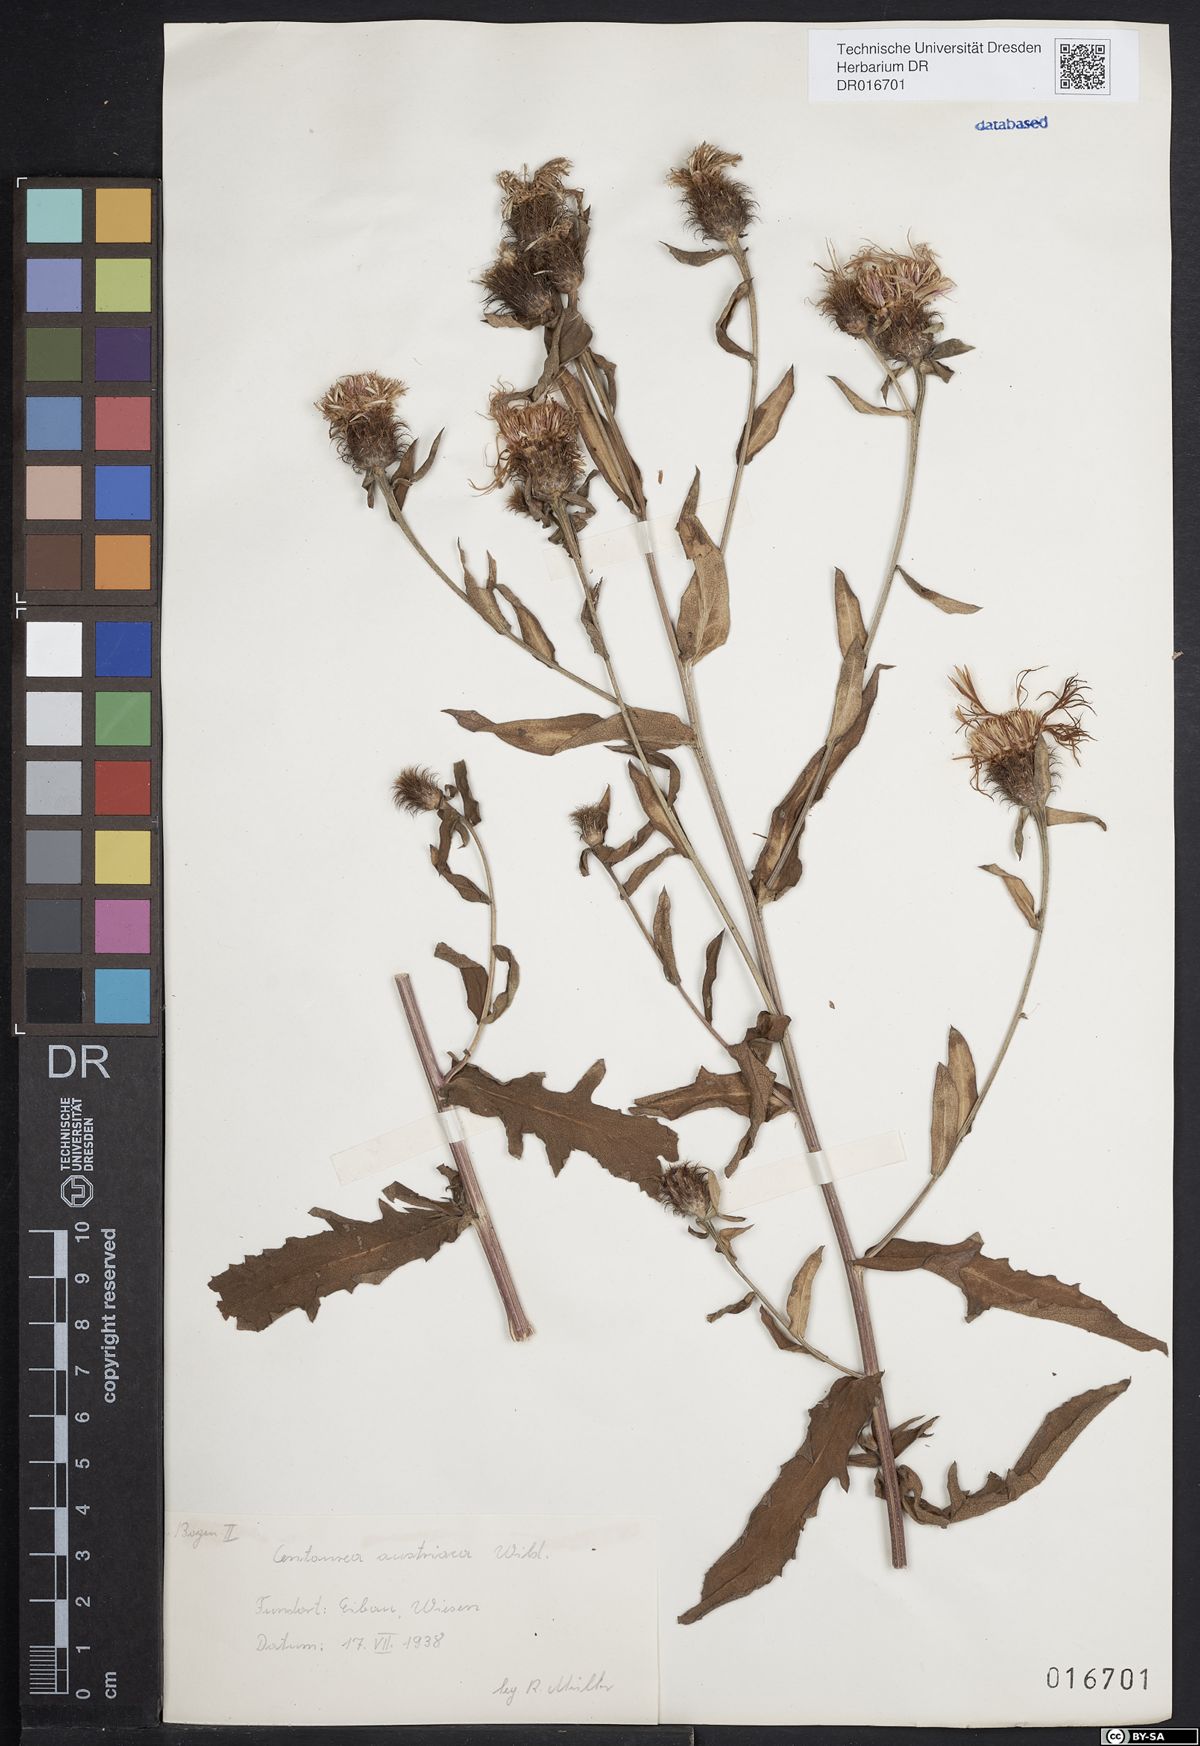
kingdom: Plantae
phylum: Tracheophyta
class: Magnoliopsida
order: Asterales
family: Asteraceae
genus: Centaurea
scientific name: Centaurea phrygia
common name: Wig knapweed
